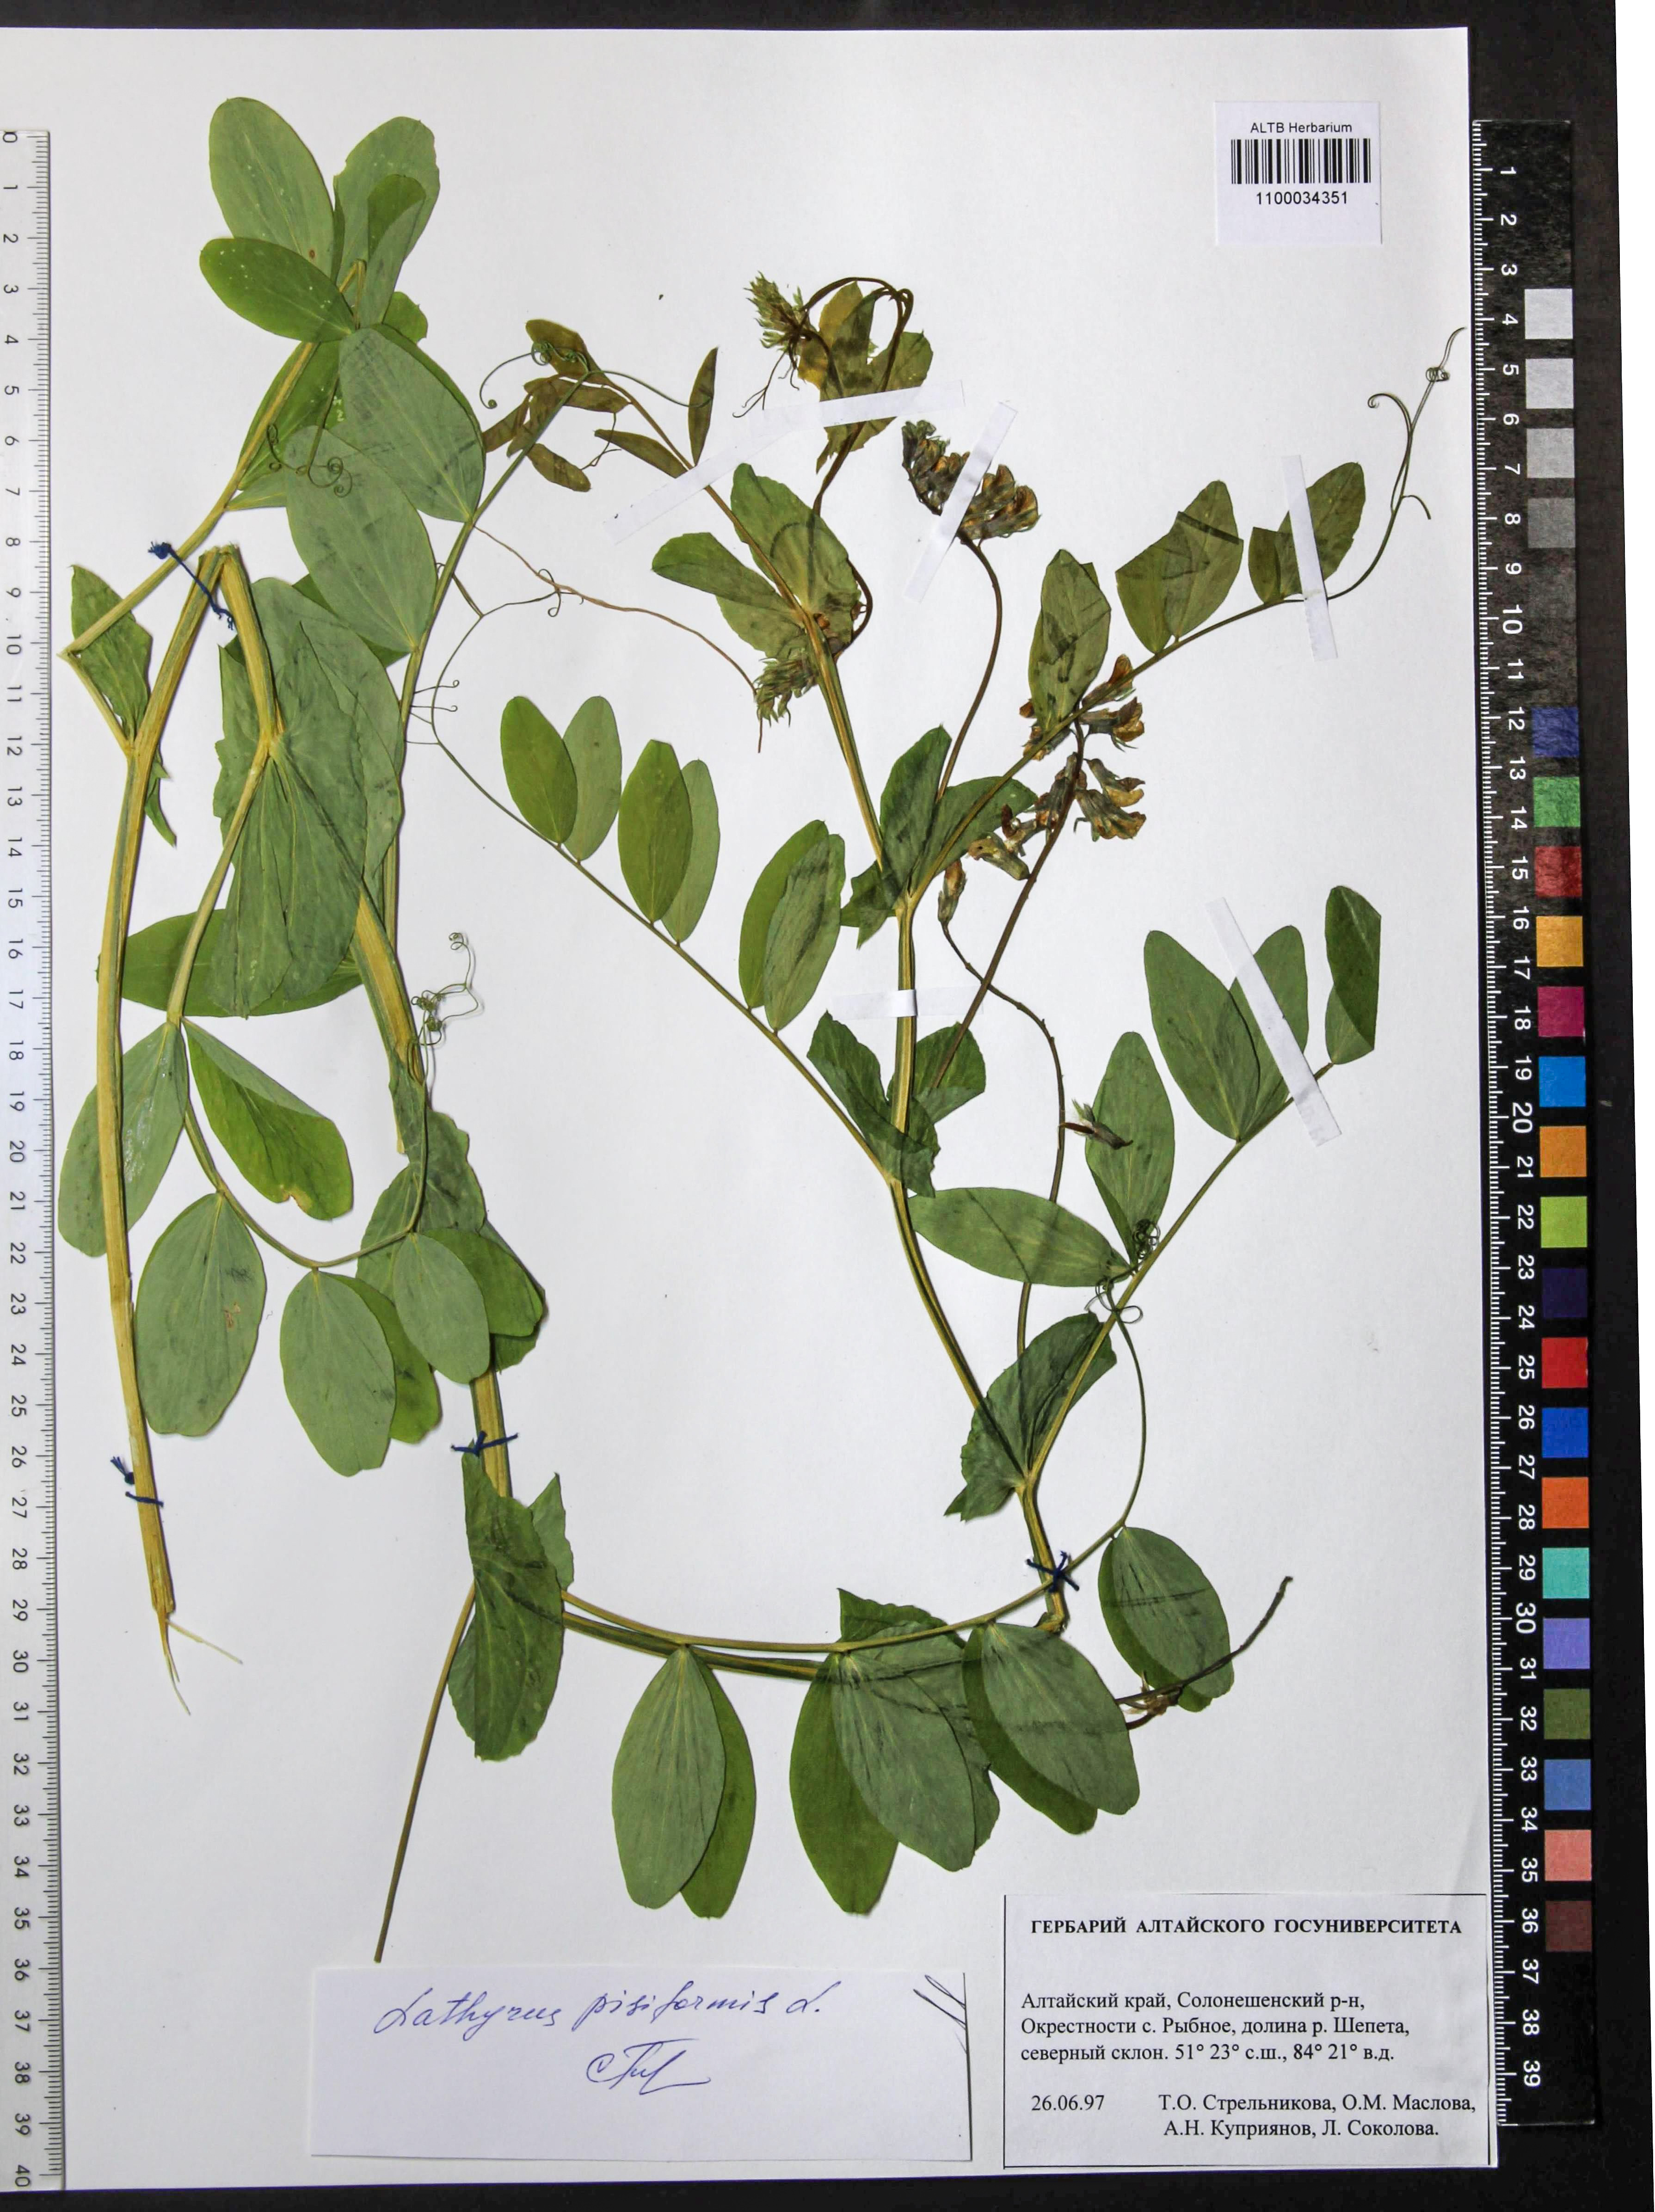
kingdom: Plantae
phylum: Tracheophyta
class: Magnoliopsida
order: Fabales
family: Fabaceae
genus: Lathyrus
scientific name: Lathyrus pisiformis
